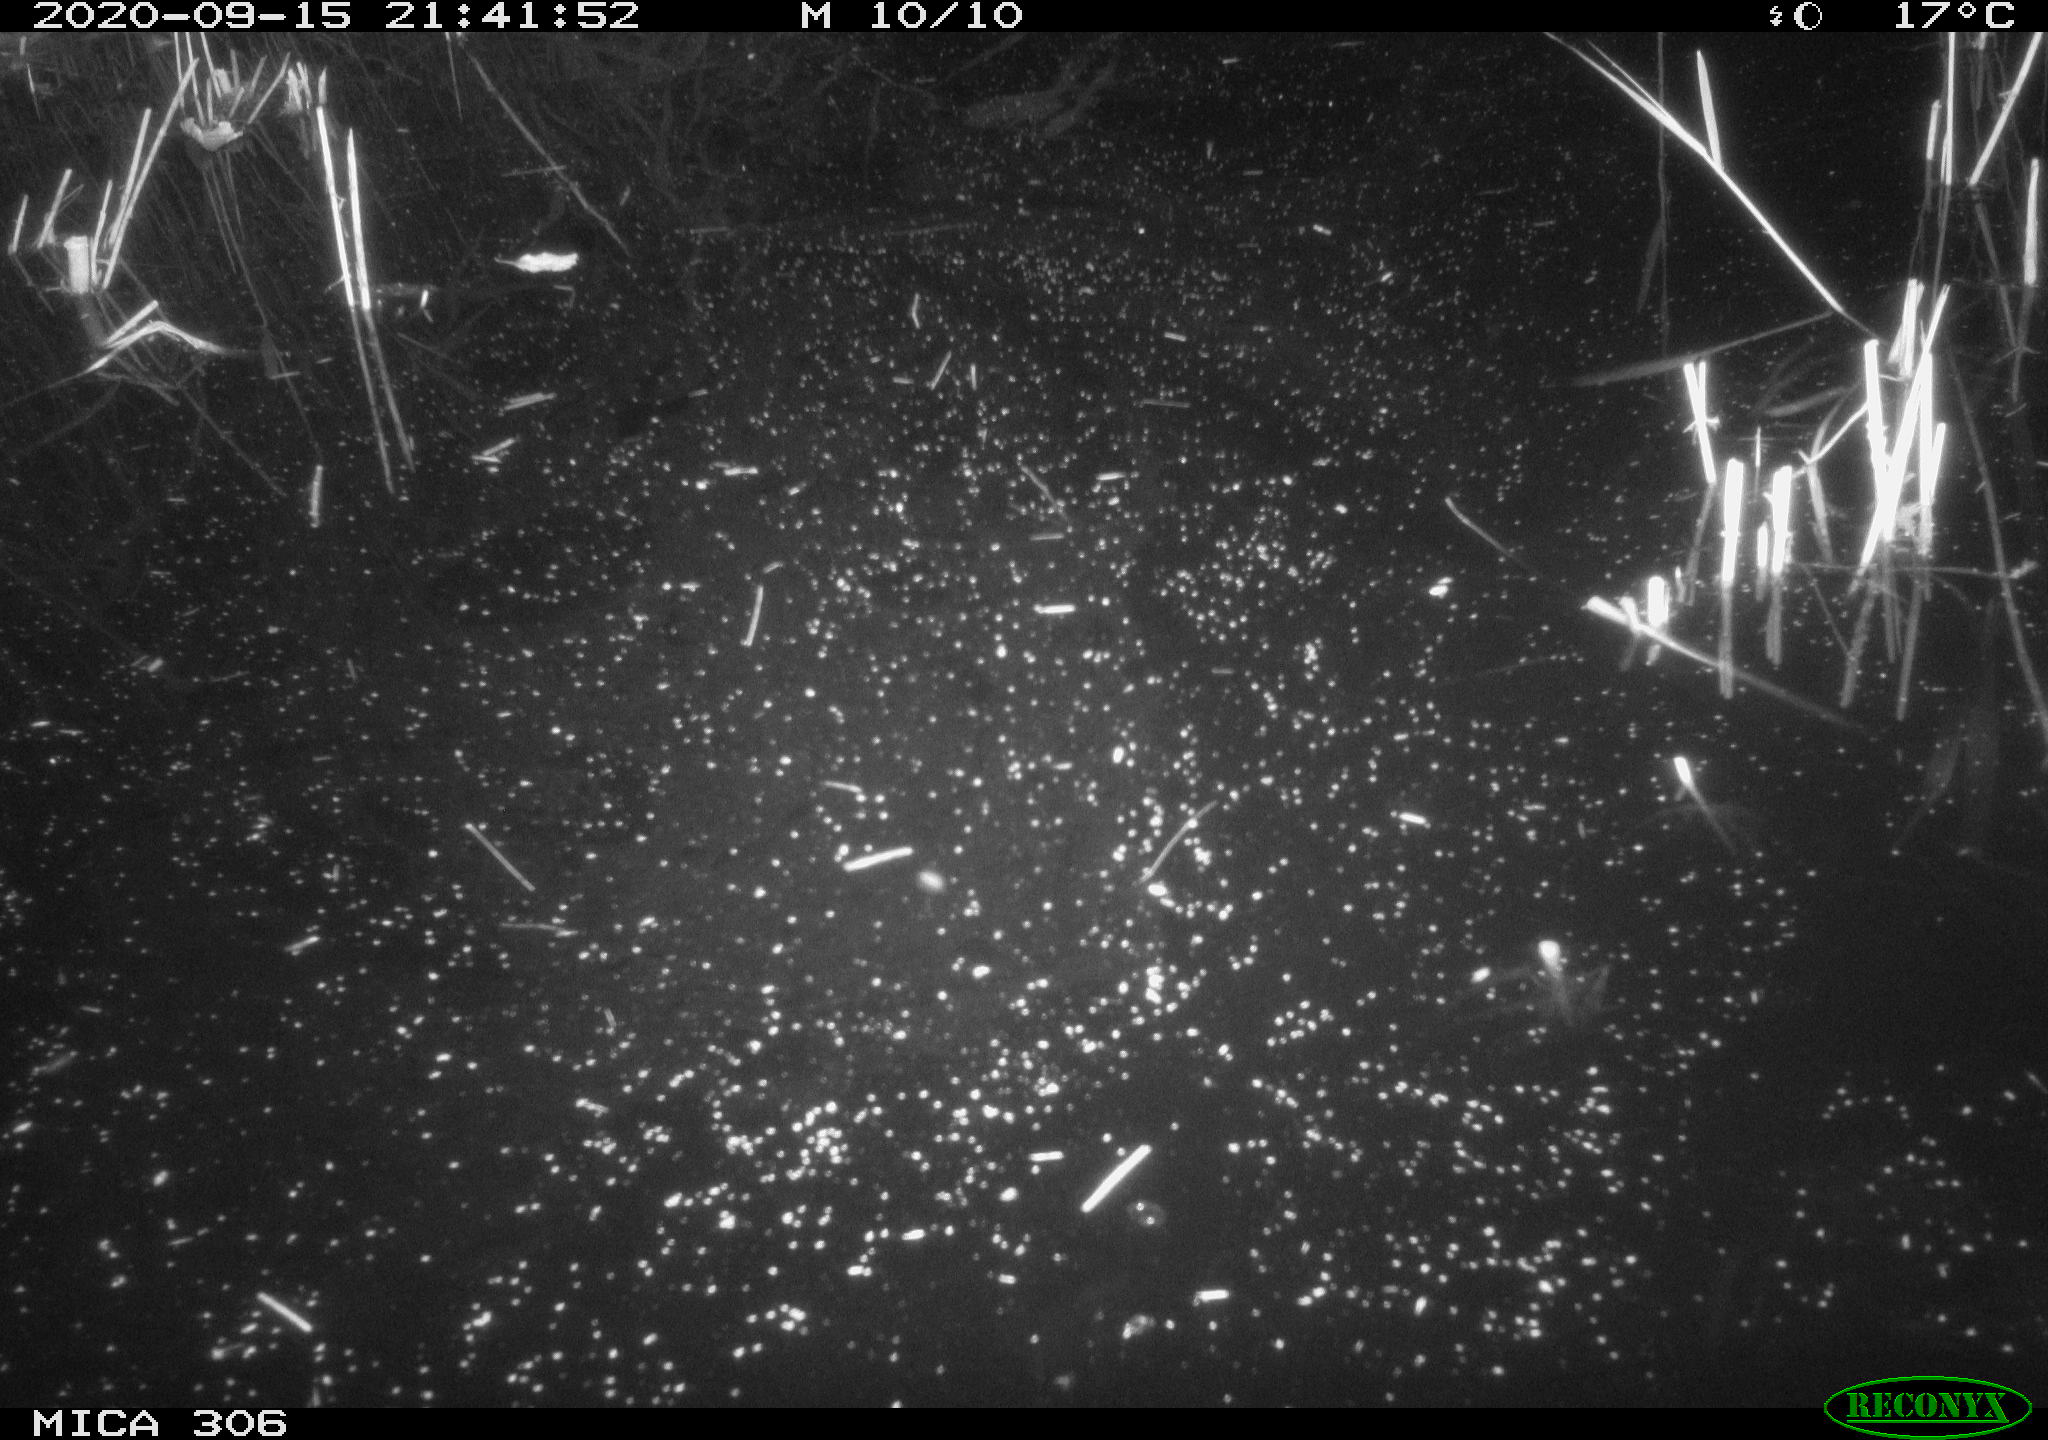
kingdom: Animalia
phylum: Chordata
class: Mammalia
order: Rodentia
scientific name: Rodentia
